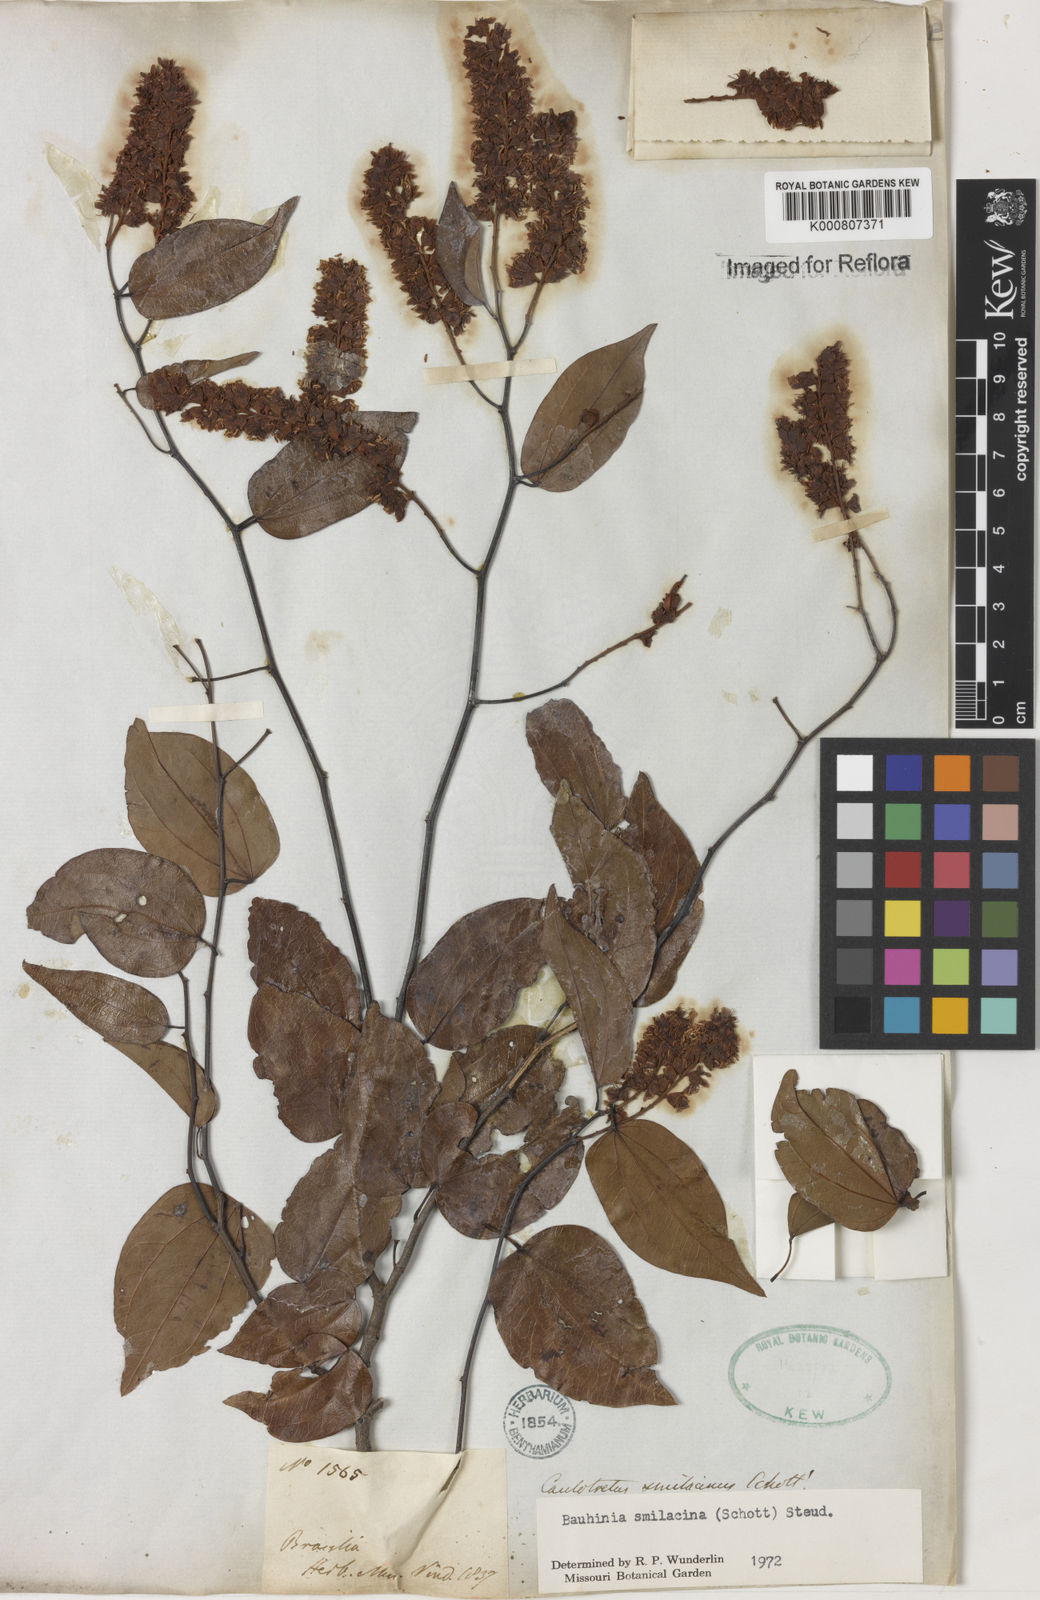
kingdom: Plantae
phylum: Tracheophyta
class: Magnoliopsida
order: Fabales
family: Fabaceae
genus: Schnella
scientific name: Schnella smilacina
